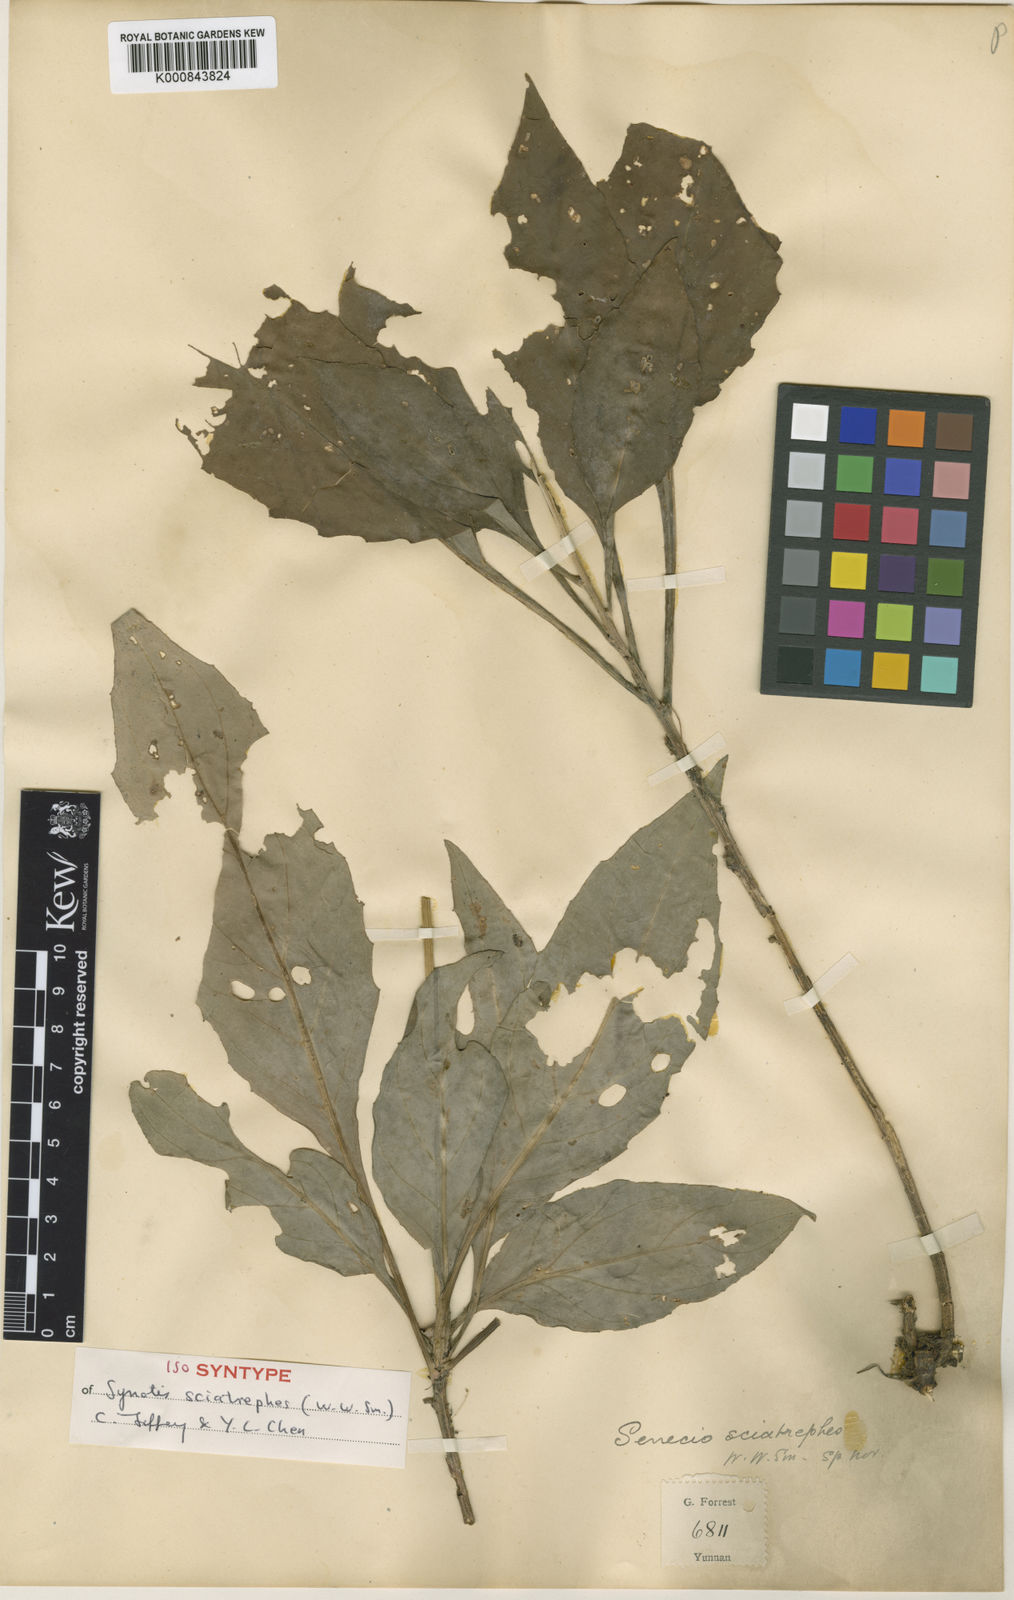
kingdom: Plantae
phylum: Tracheophyta
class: Magnoliopsida
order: Asterales
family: Asteraceae
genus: Synotis
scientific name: Synotis sciatrephes
